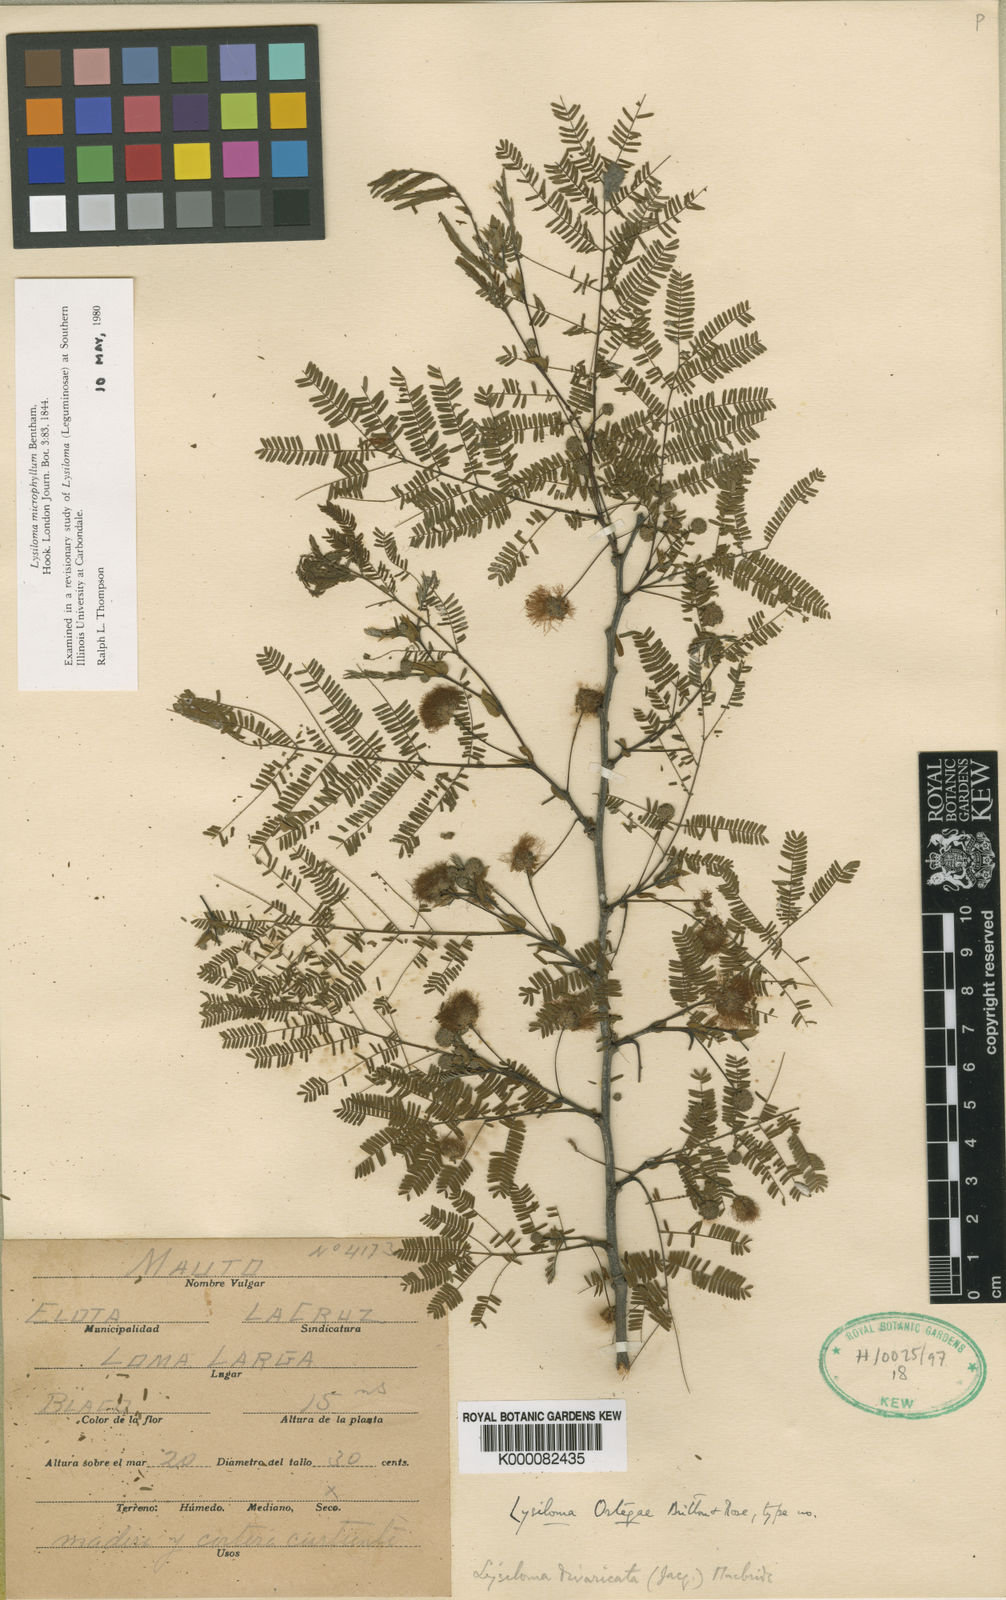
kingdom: Plantae
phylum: Tracheophyta
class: Magnoliopsida
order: Fabales
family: Fabaceae
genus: Lysiloma
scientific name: Lysiloma divaricatum
